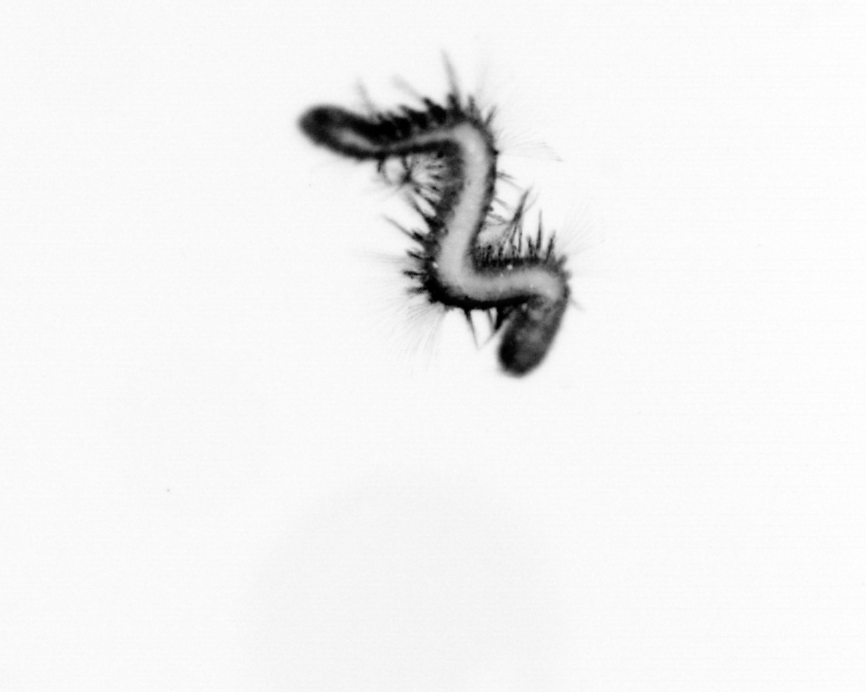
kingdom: Animalia
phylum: Annelida
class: Polychaeta
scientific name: Polychaeta
